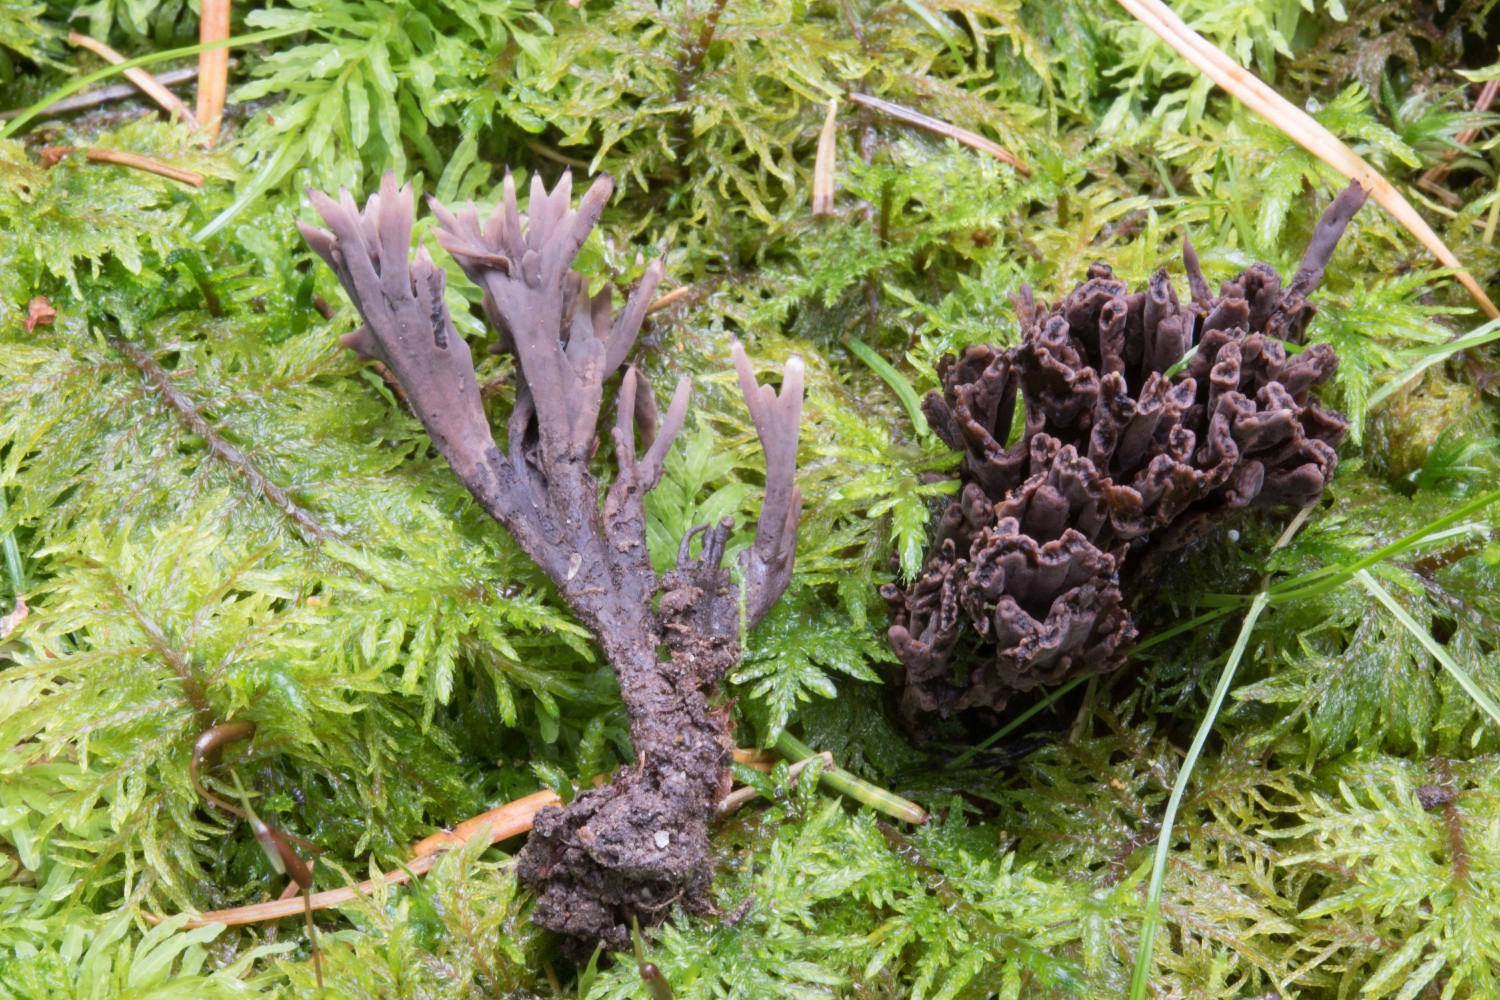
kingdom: Fungi
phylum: Basidiomycota
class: Agaricomycetes
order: Thelephorales
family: Thelephoraceae
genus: Thelephora
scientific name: Thelephora palmata
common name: grenet frynsesvamp
